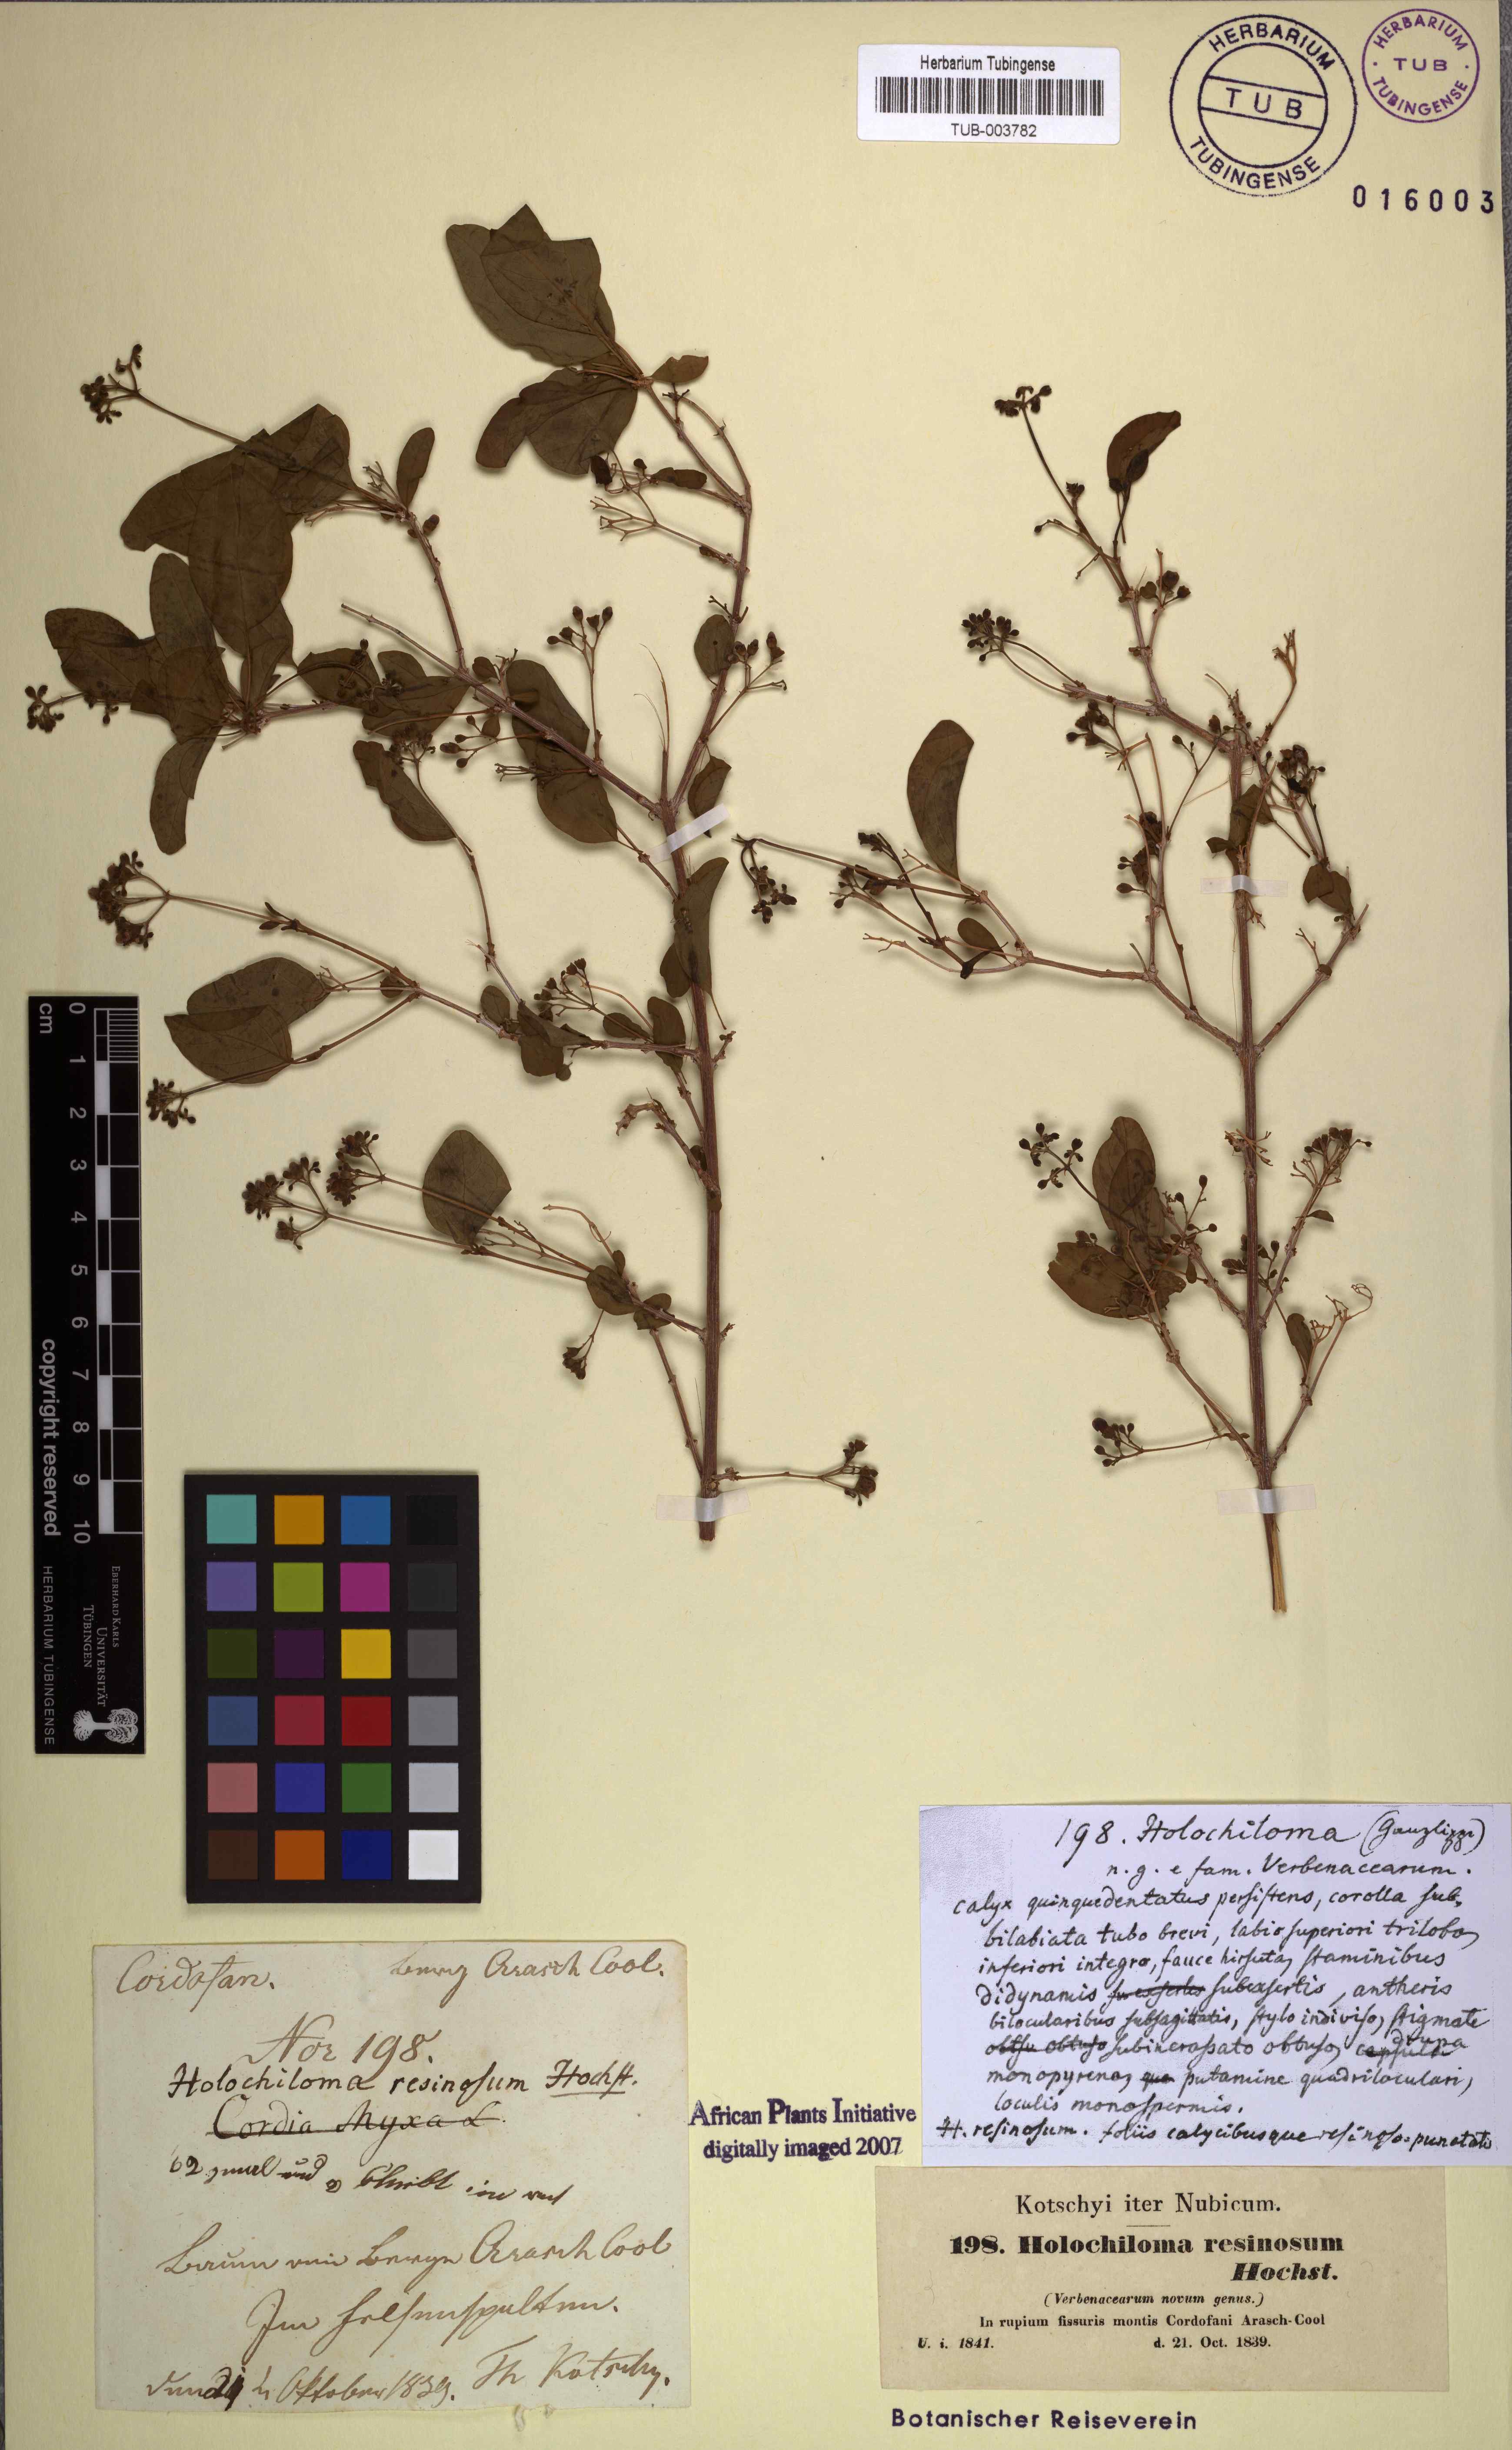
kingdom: Plantae
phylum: Tracheophyta
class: Magnoliopsida
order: Lamiales
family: Lamiaceae
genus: Premna
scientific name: Premna resinosa
